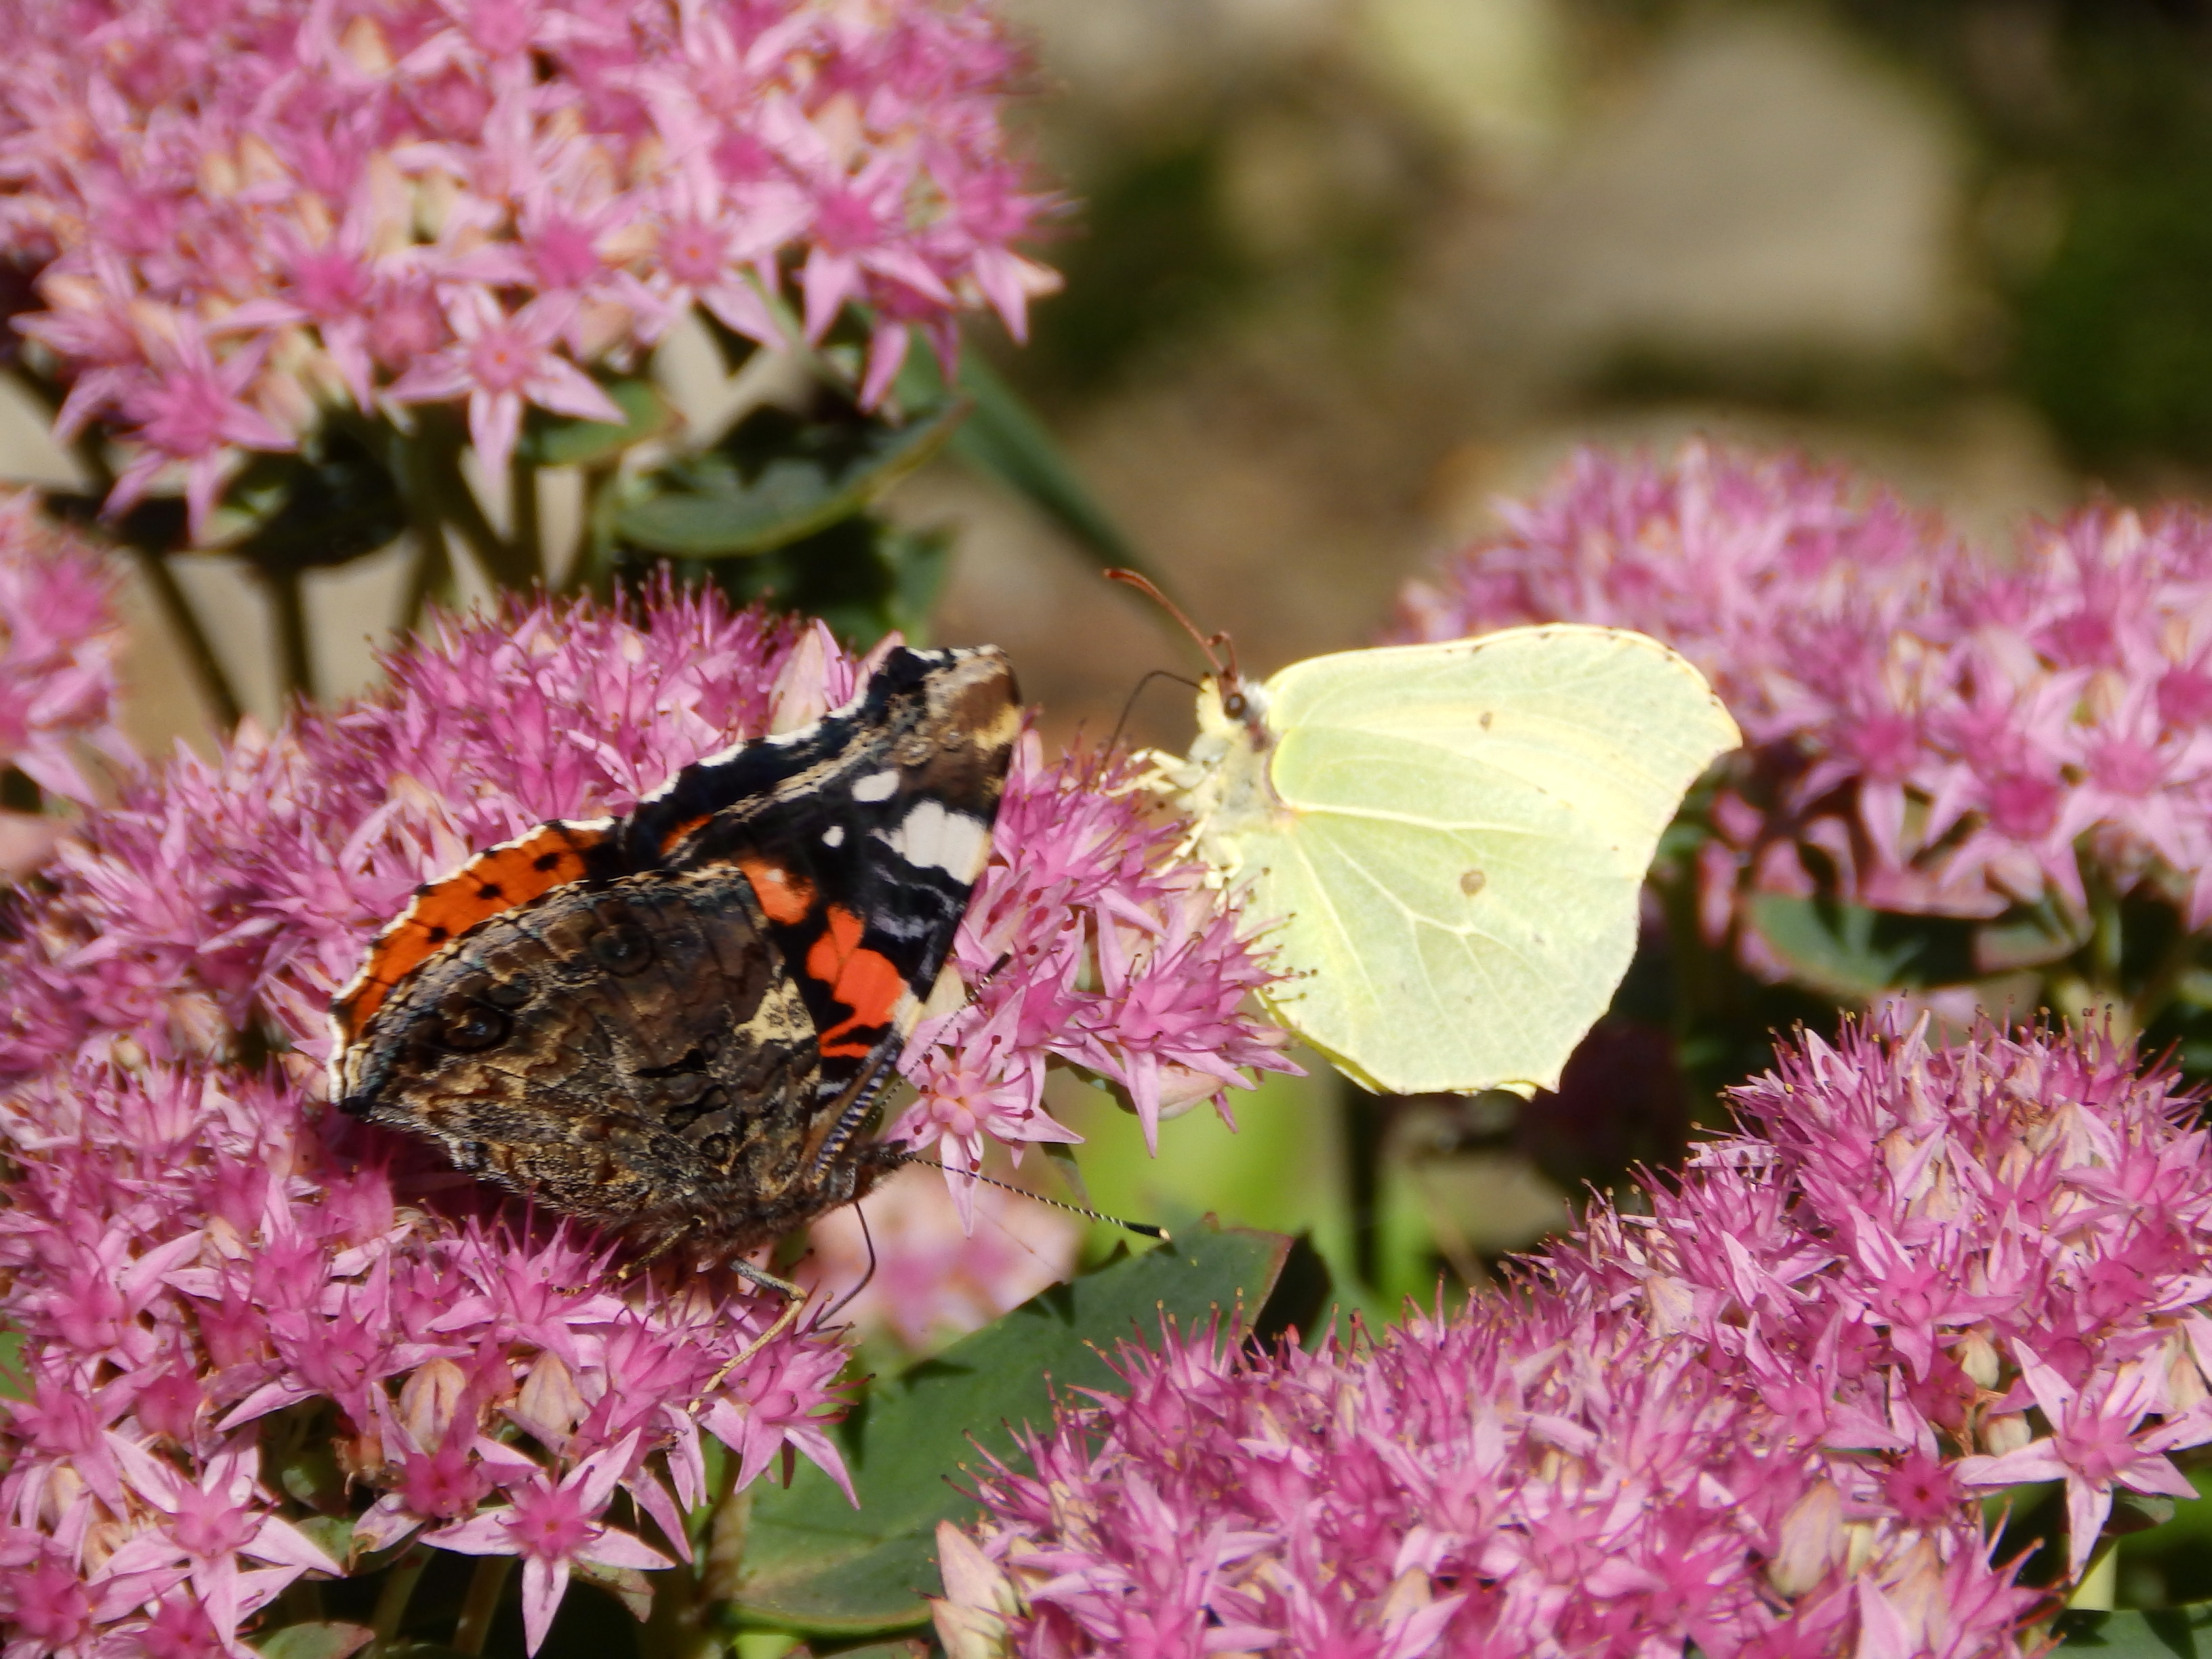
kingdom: Animalia
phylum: Arthropoda
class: Insecta
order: Lepidoptera
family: Nymphalidae
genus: Vanessa
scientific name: Vanessa atalanta
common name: Red admiral
